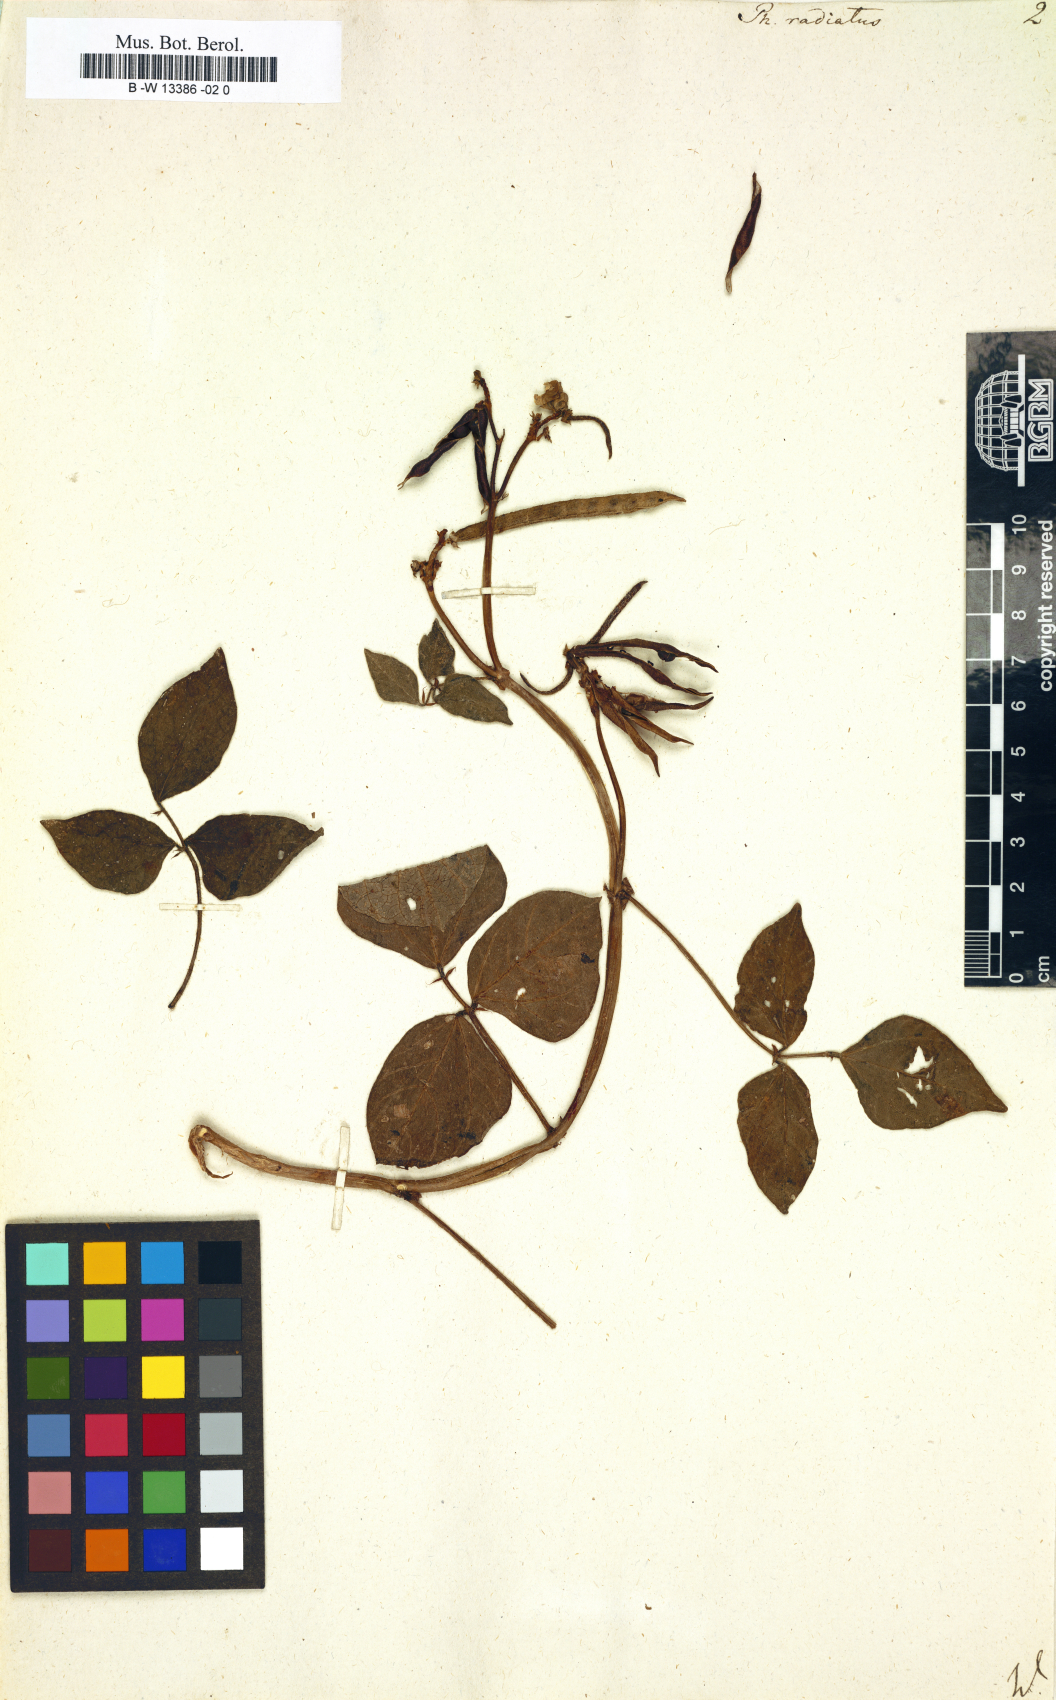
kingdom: Plantae
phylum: Tracheophyta
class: Magnoliopsida
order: Fabales
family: Fabaceae
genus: Vigna
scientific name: Vigna
